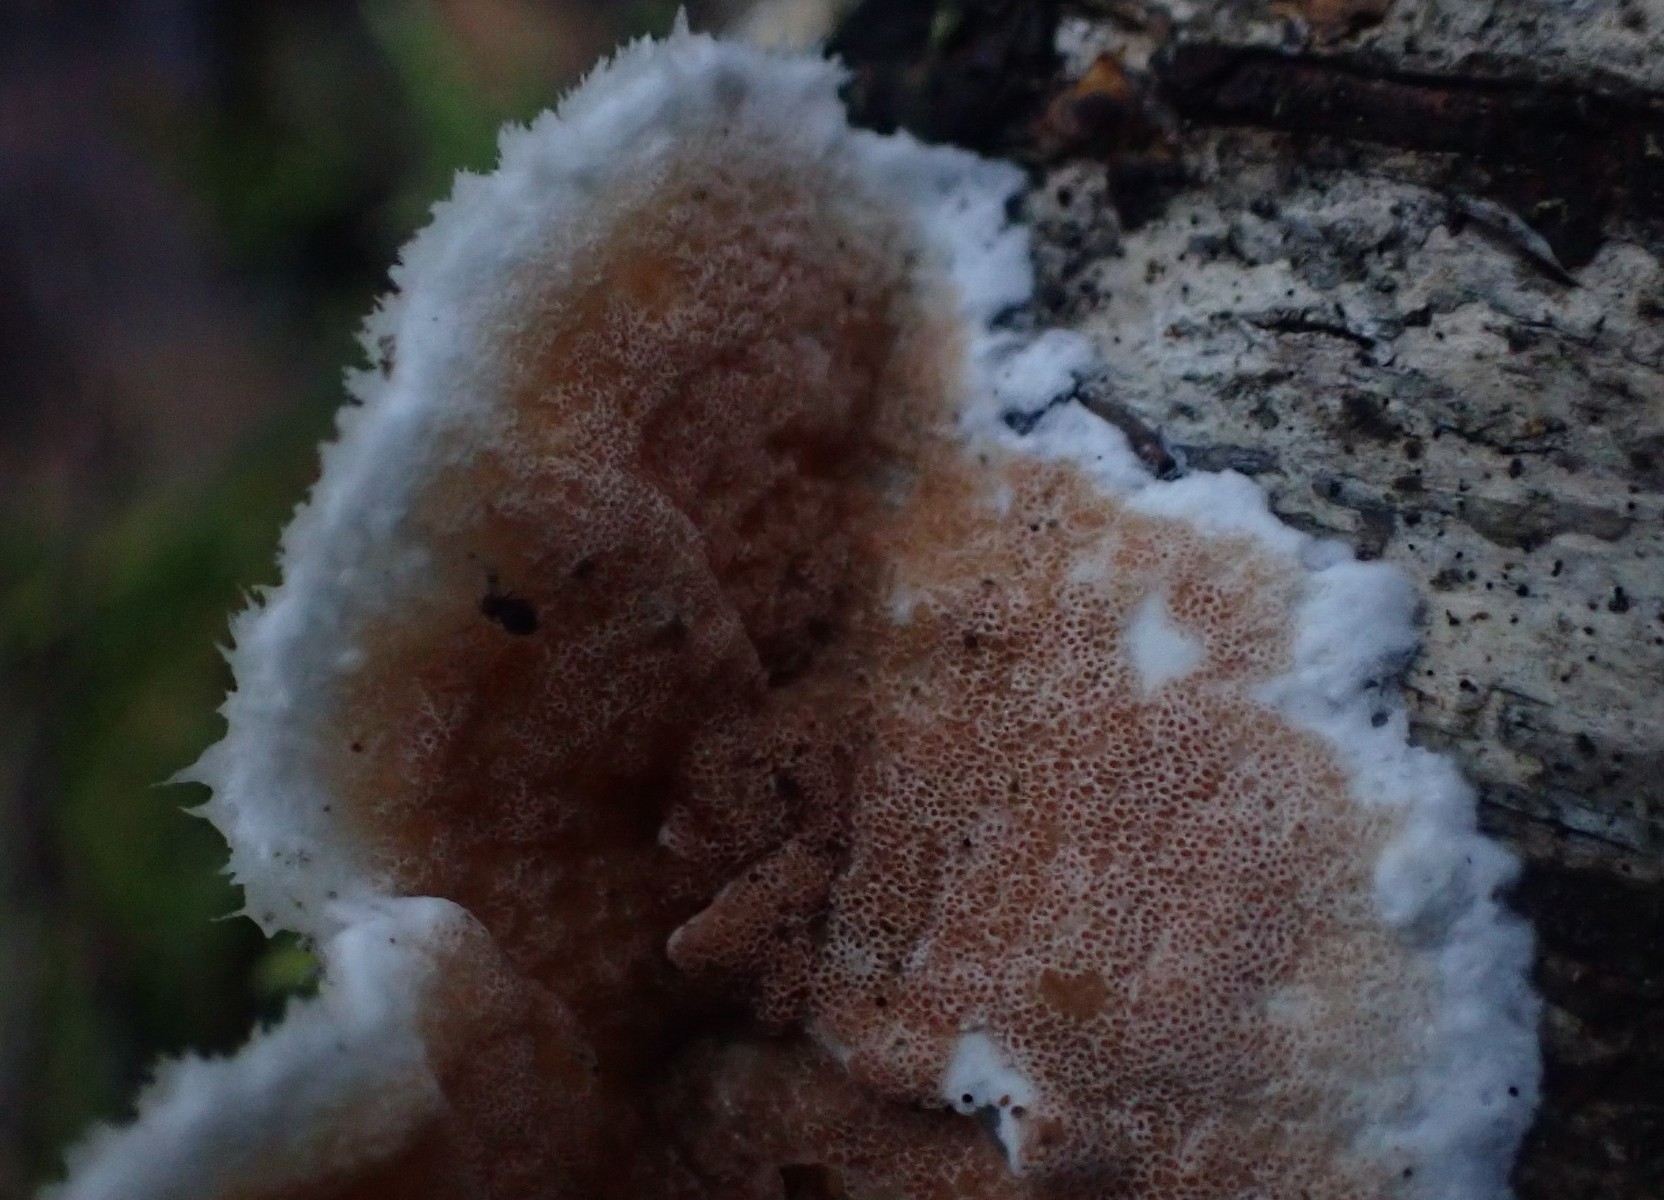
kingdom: Fungi
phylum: Basidiomycota
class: Agaricomycetes
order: Polyporales
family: Irpicaceae
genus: Vitreoporus
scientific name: Vitreoporus dichrous
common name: tofarvet foldporesvamp
